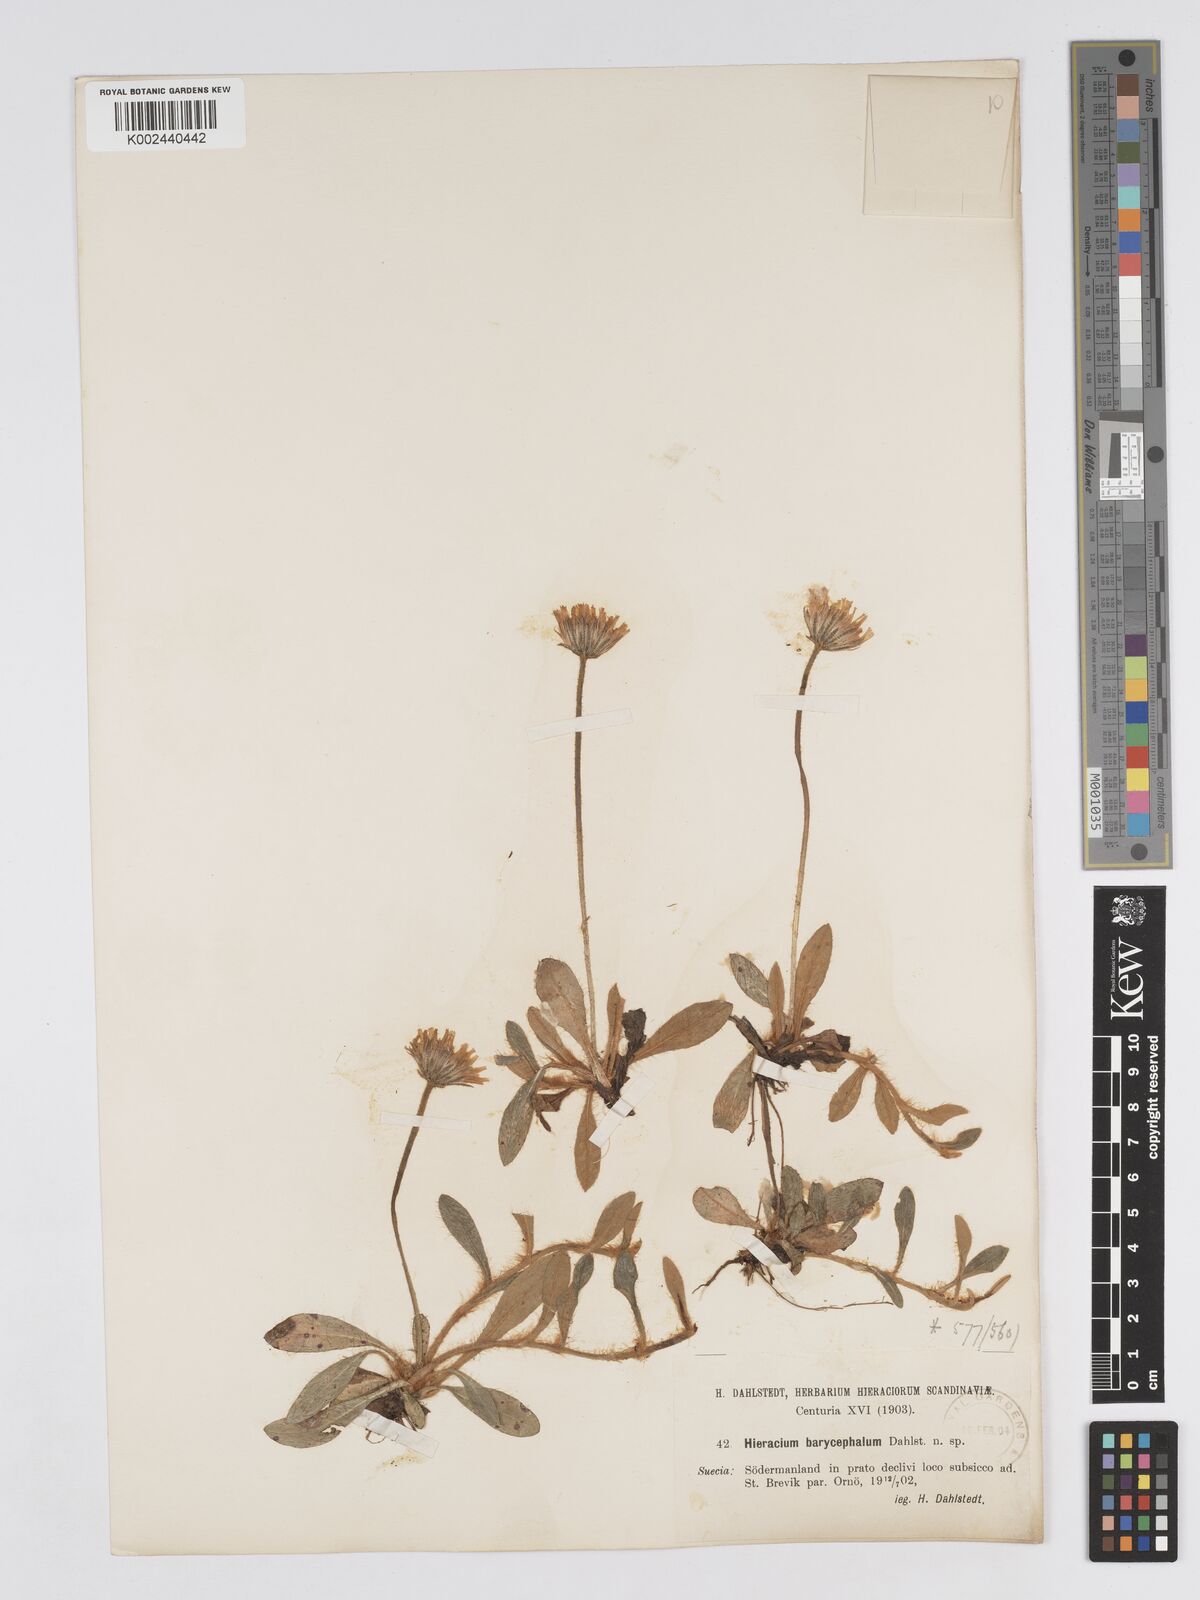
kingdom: Plantae
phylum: Tracheophyta
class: Magnoliopsida
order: Asterales
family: Asteraceae
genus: Hieracium
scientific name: Hieracium
